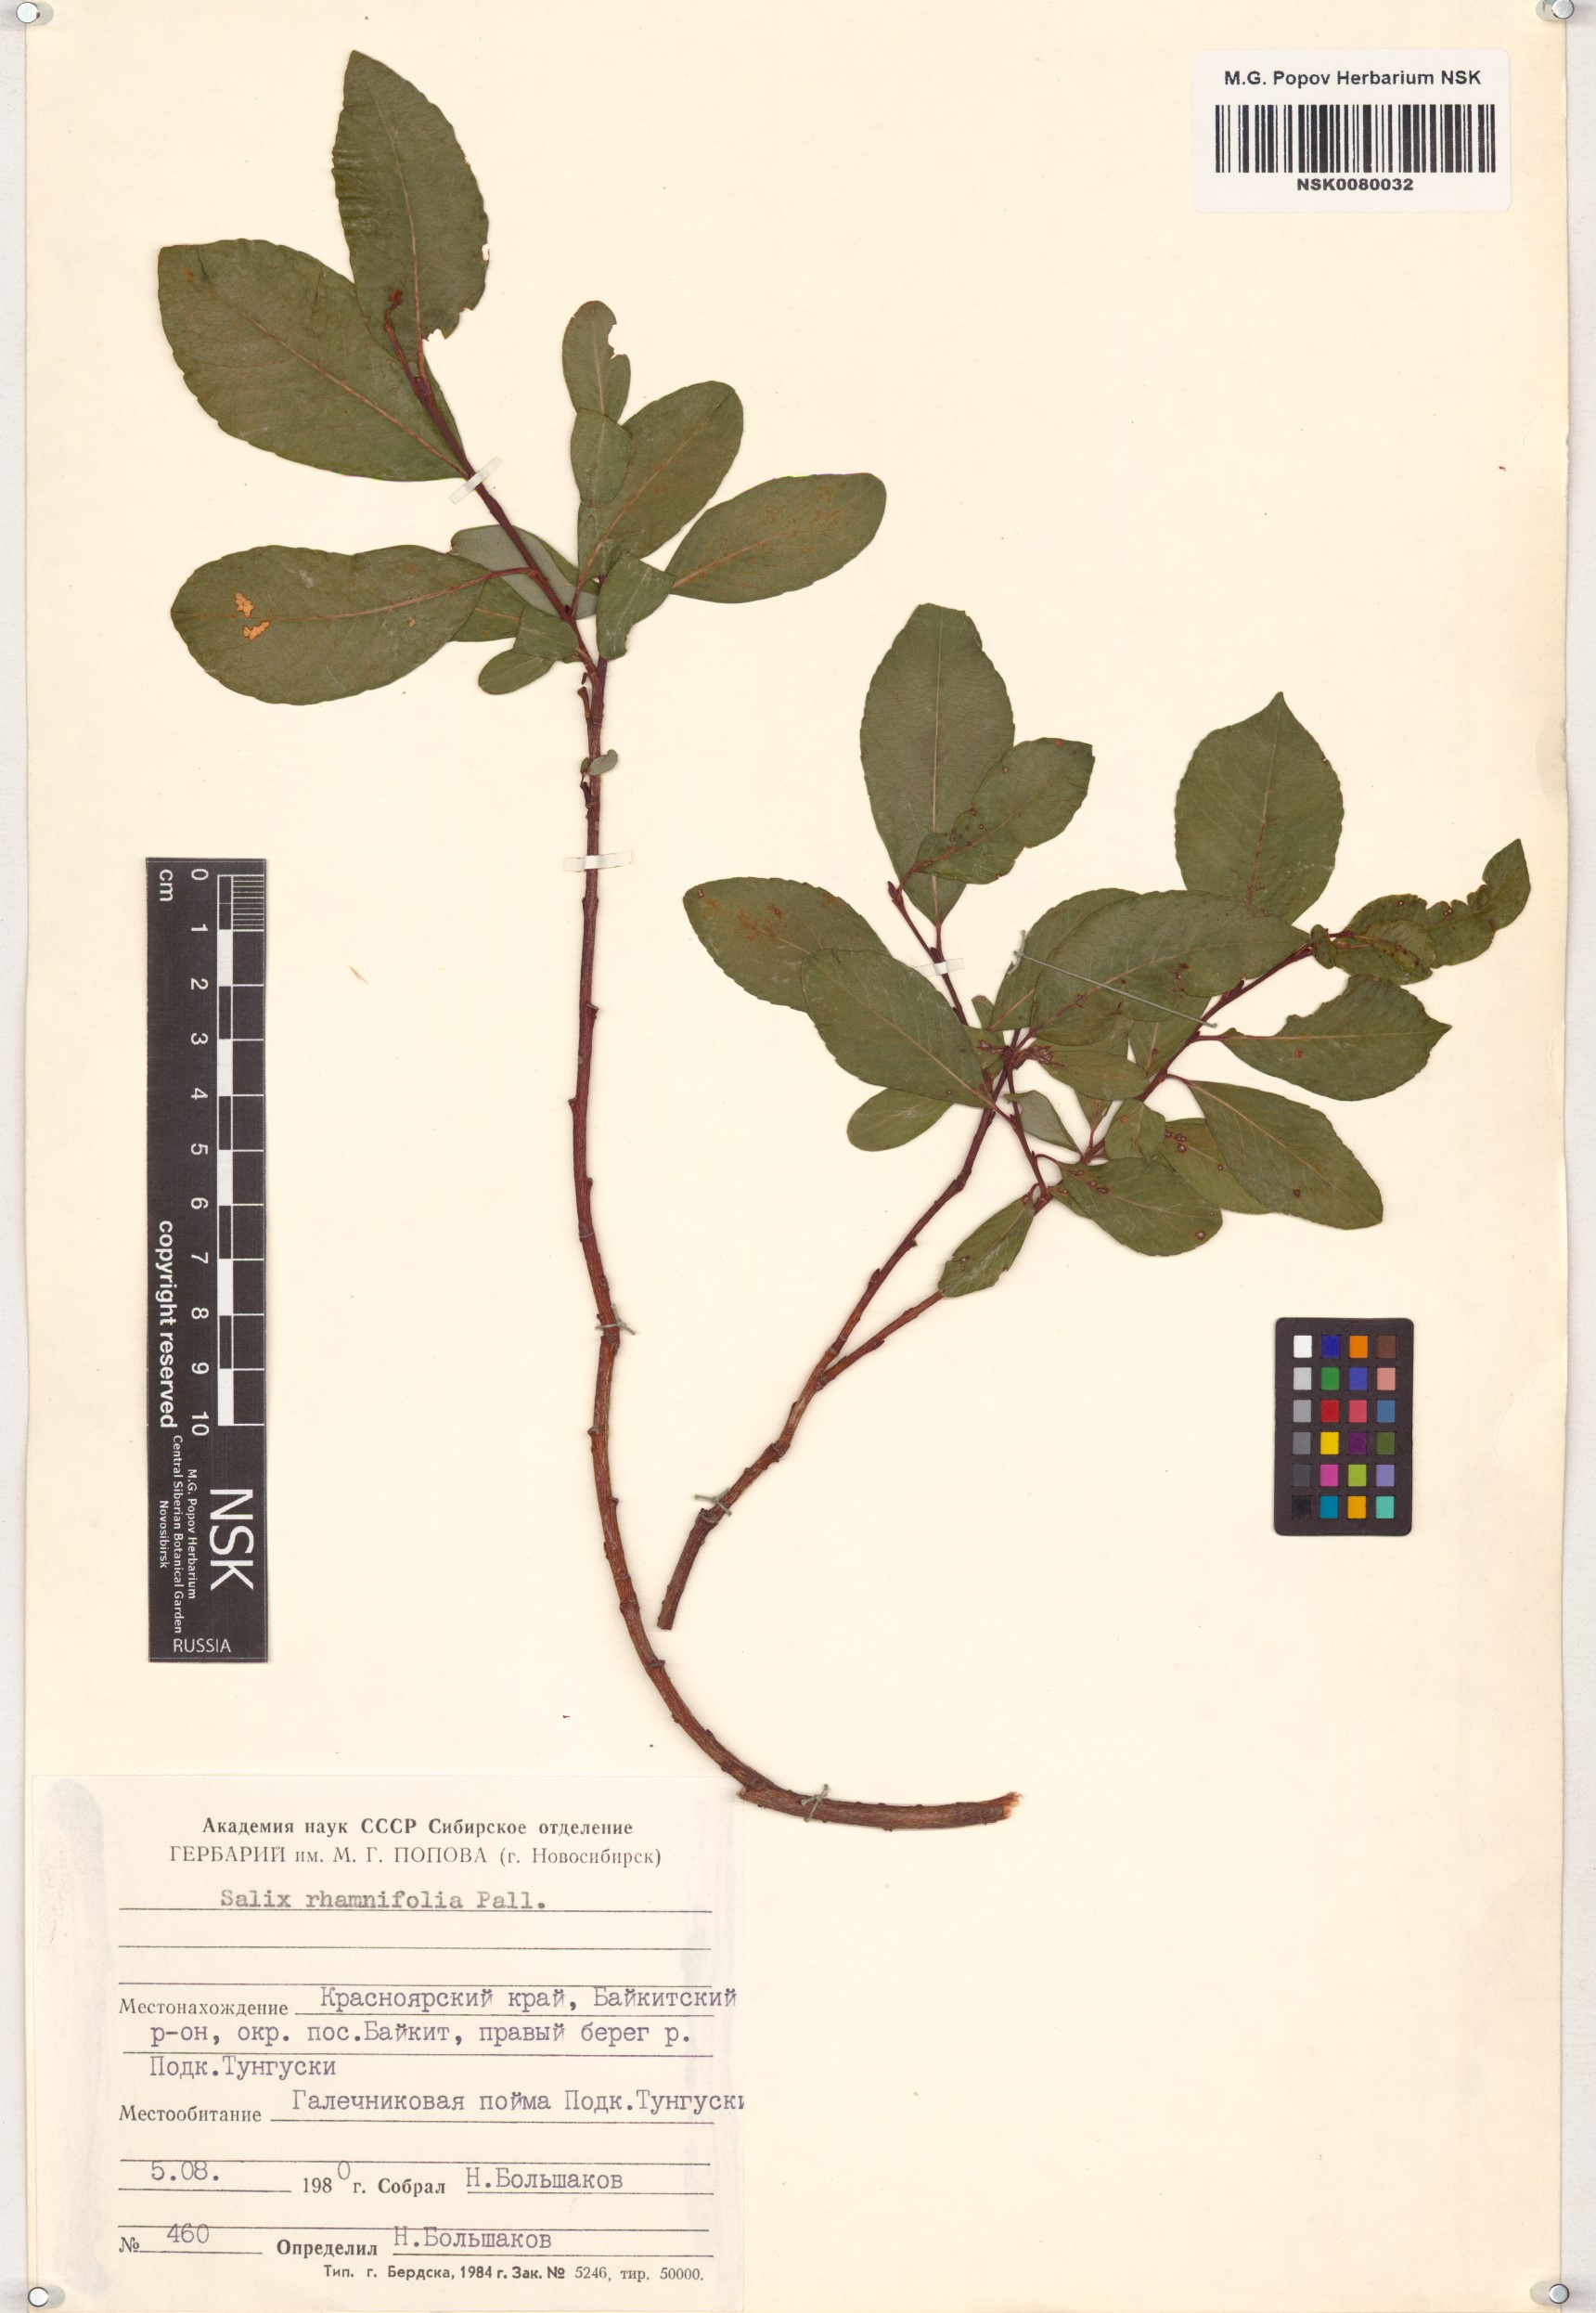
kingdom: Plantae
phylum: Tracheophyta
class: Magnoliopsida
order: Malpighiales
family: Salicaceae
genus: Salix
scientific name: Salix rhamnifolia
